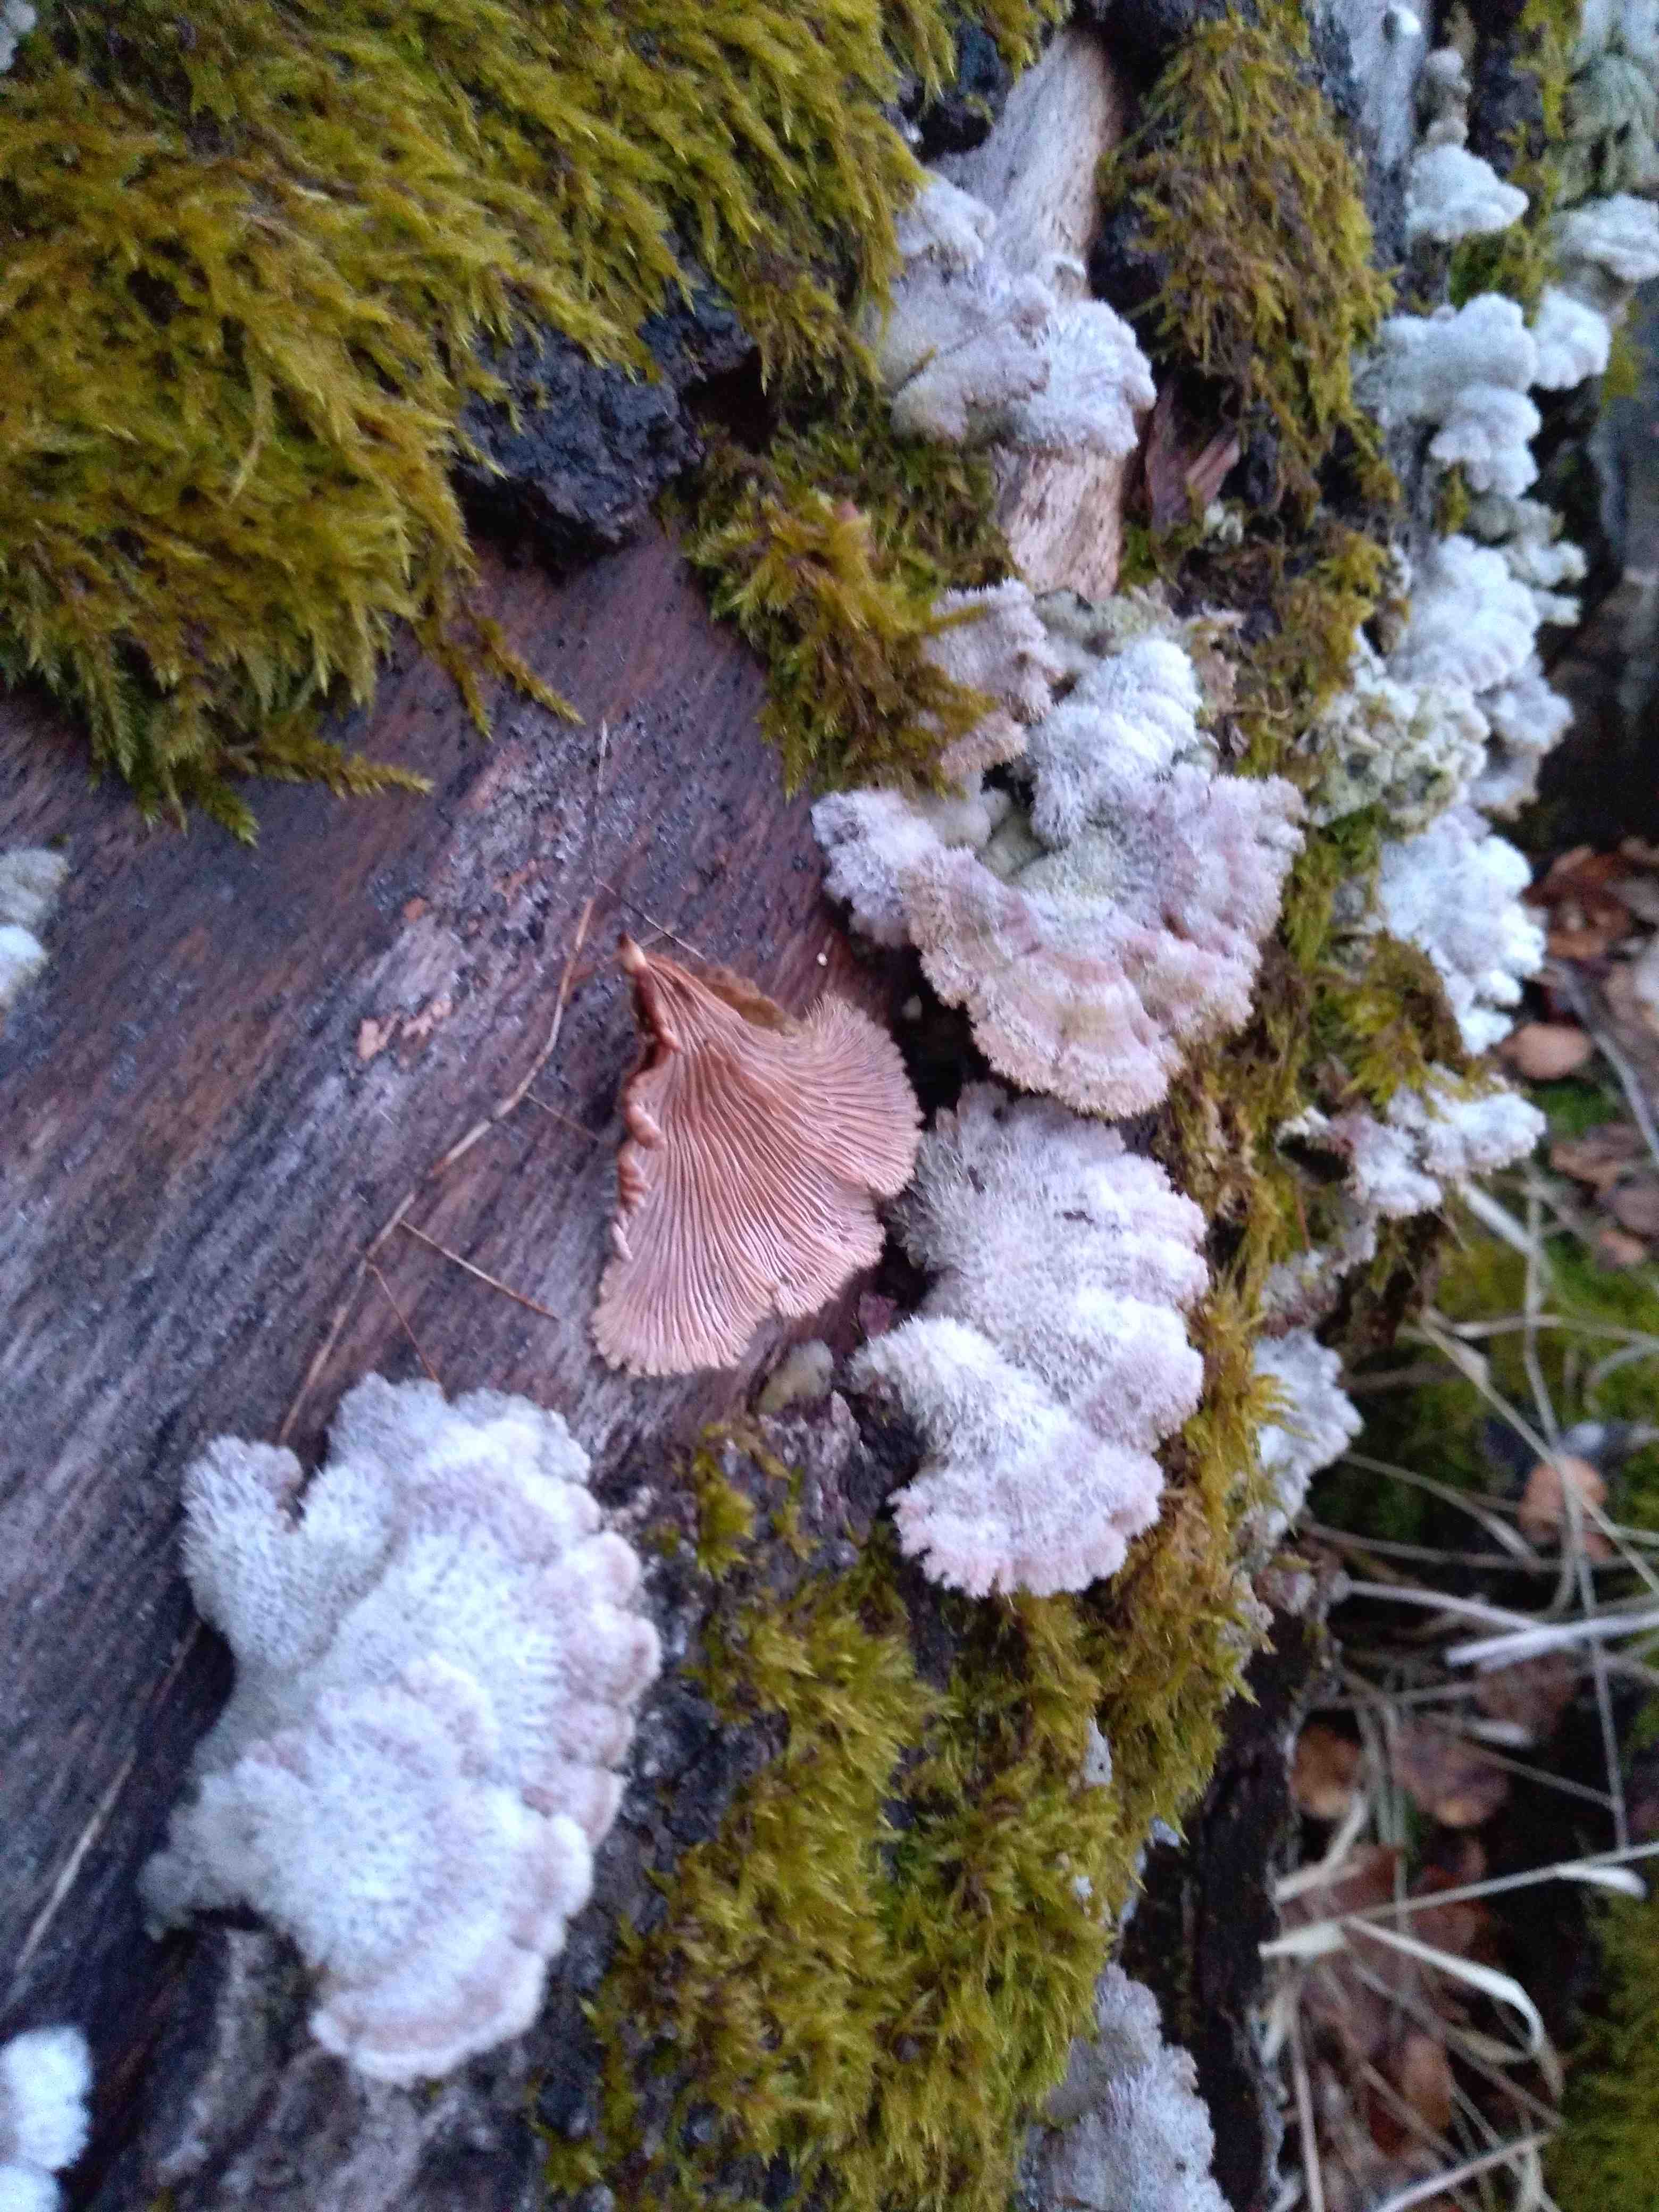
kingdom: Fungi
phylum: Basidiomycota
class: Agaricomycetes
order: Agaricales
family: Schizophyllaceae
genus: Schizophyllum
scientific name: Schizophyllum commune
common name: kløvblad
